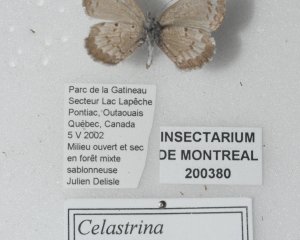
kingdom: Animalia
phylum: Arthropoda
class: Insecta
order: Lepidoptera
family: Lycaenidae
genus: Celastrina
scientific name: Celastrina lucia
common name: Northern Spring Azure
